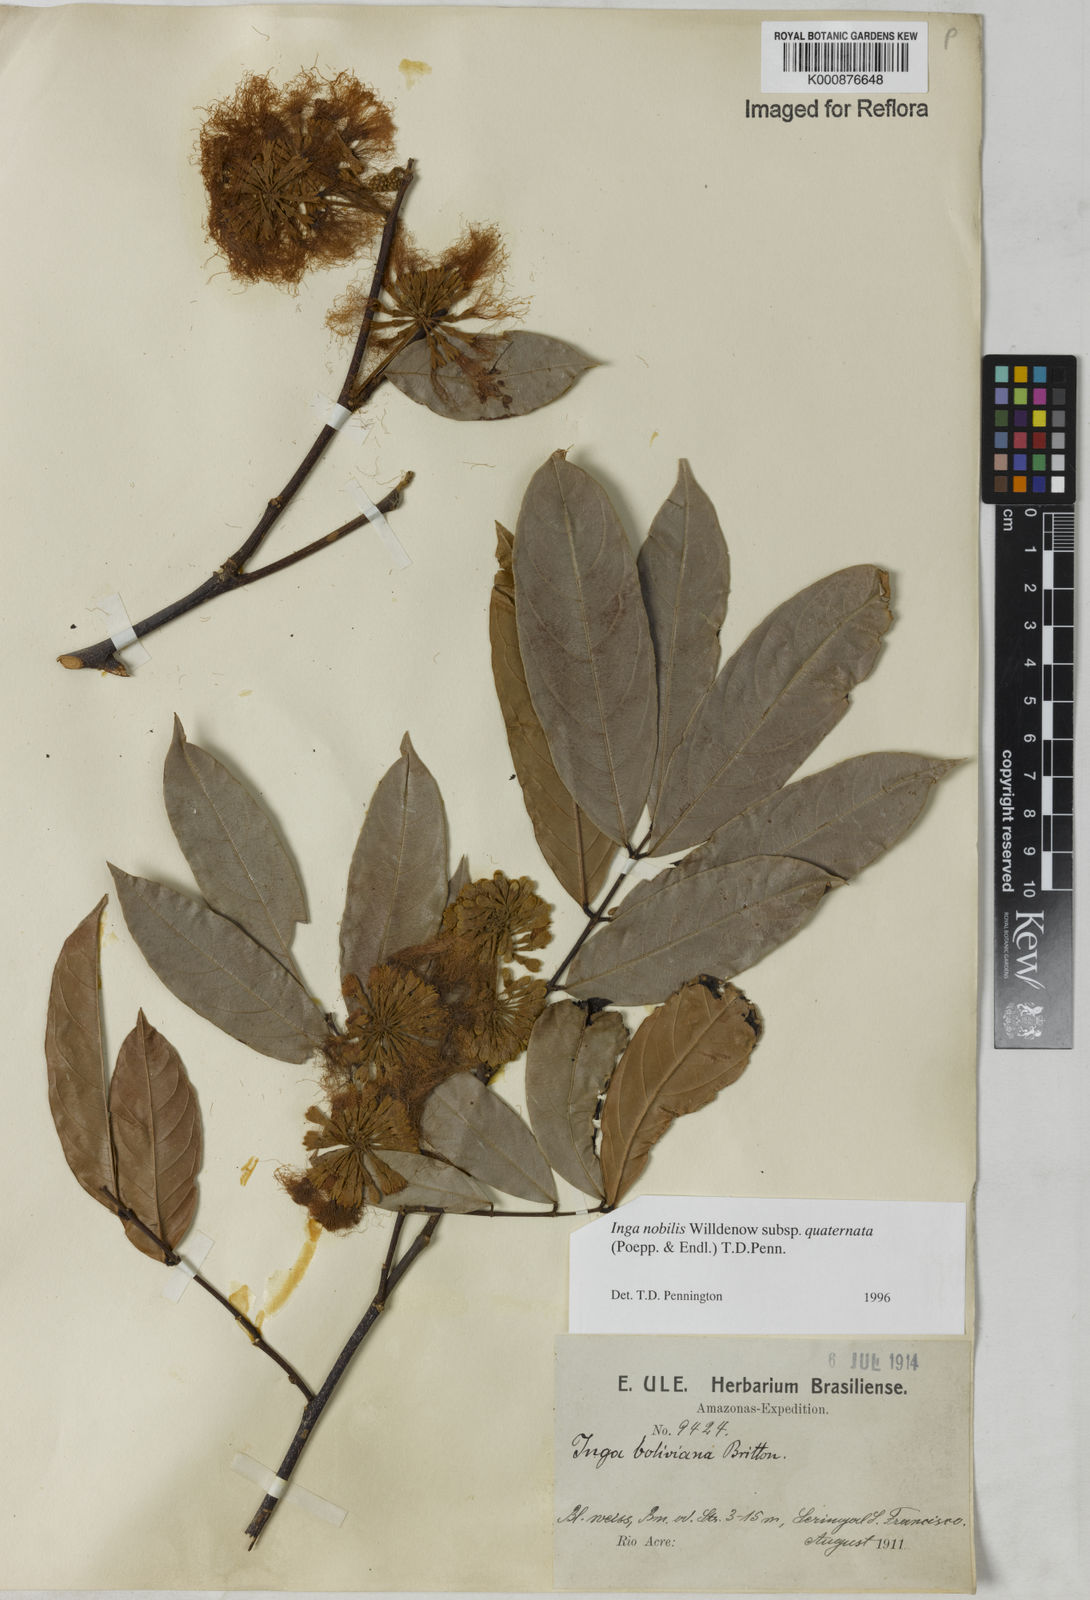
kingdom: Plantae
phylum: Tracheophyta
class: Magnoliopsida
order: Fabales
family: Fabaceae
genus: Inga
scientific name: Inga nobilis
